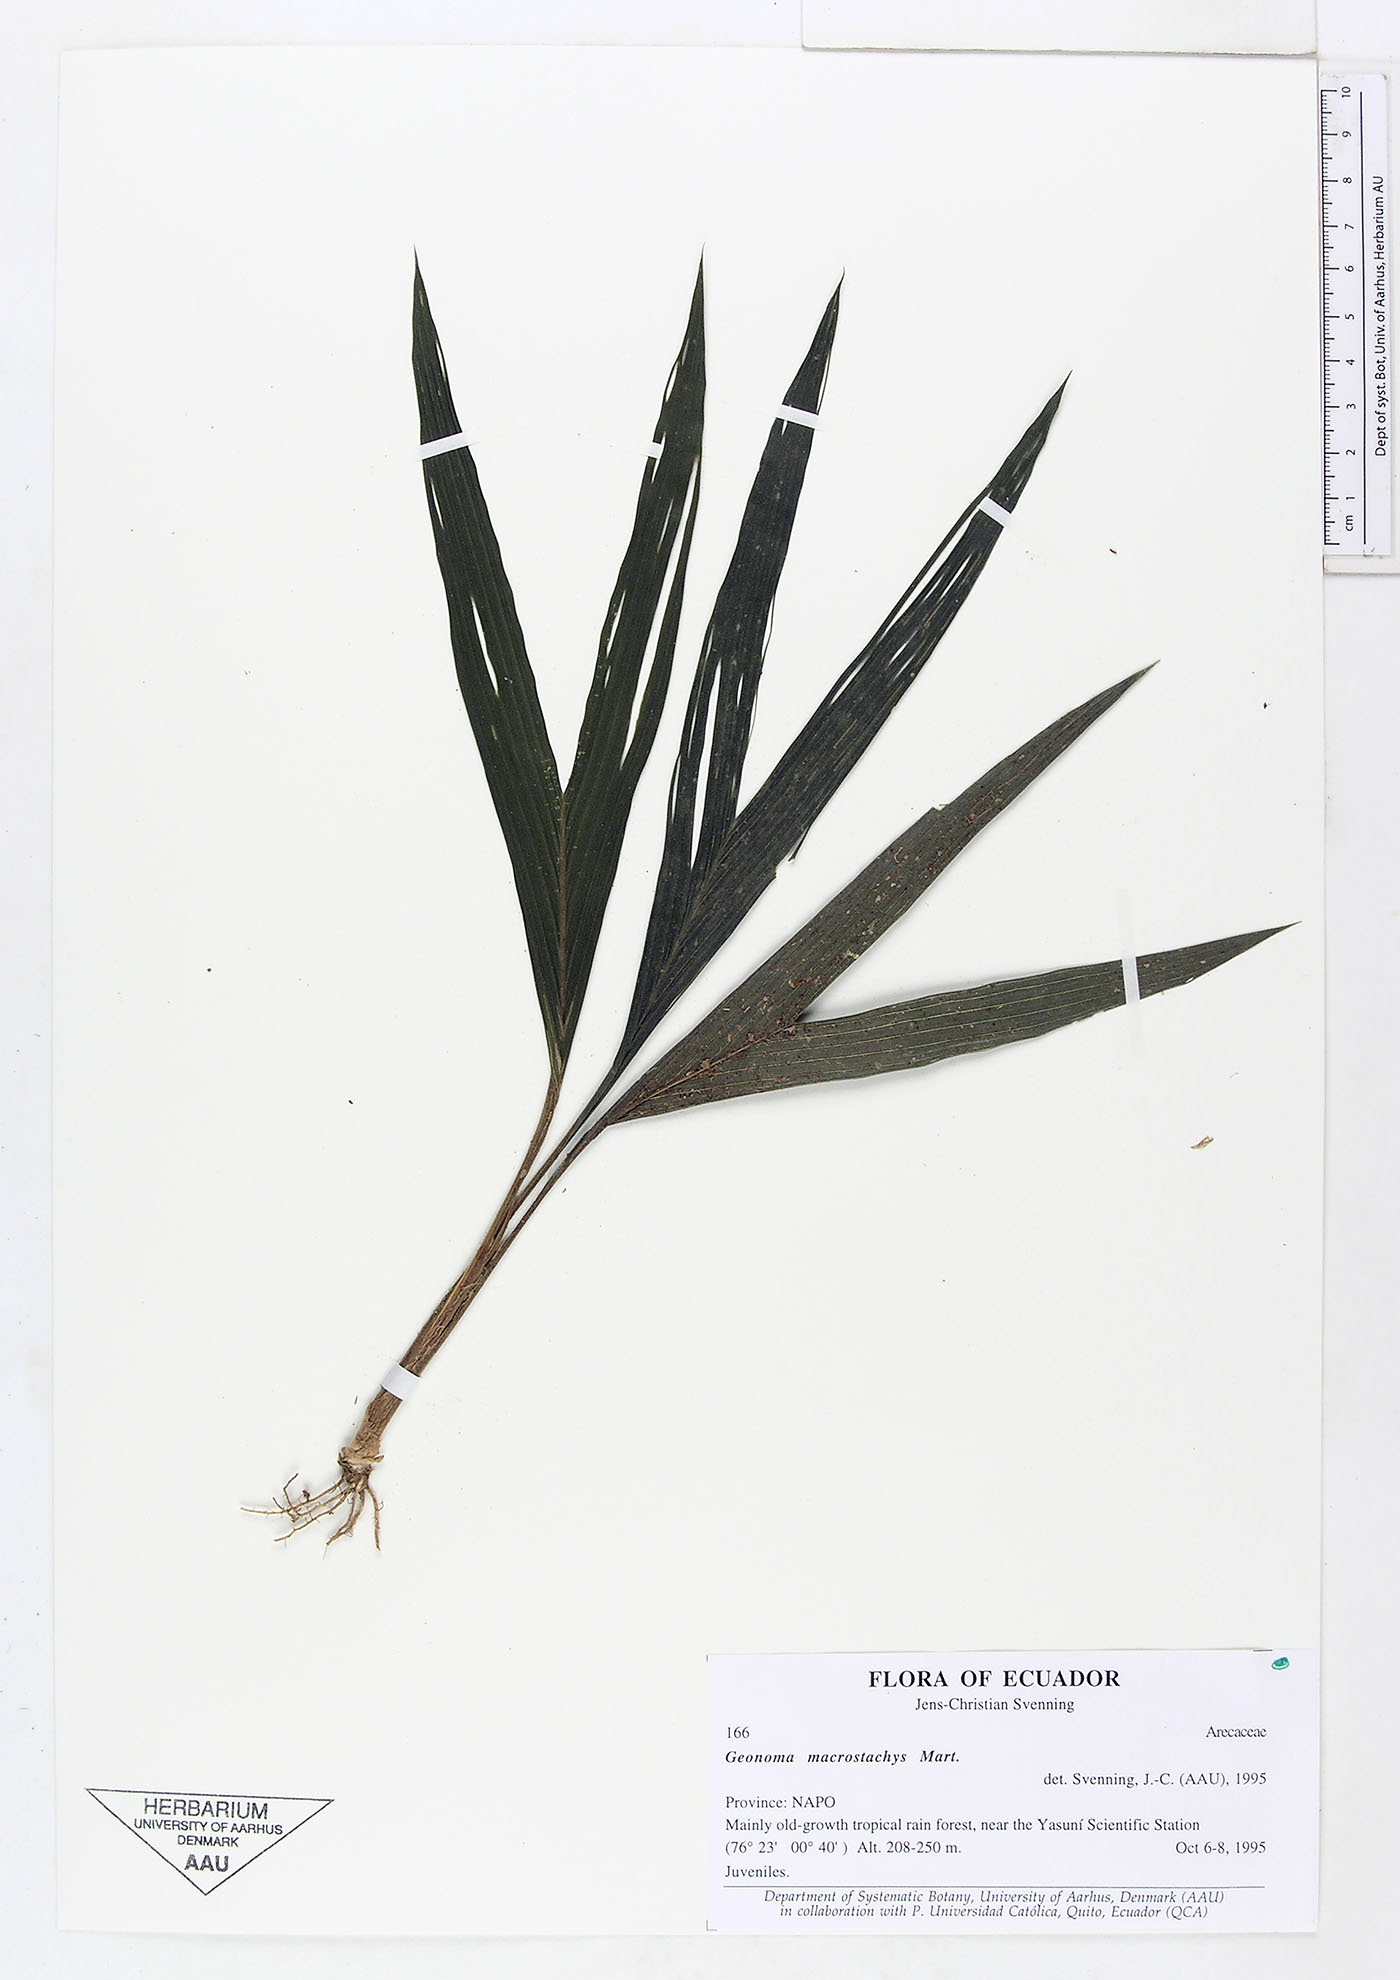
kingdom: Plantae
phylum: Tracheophyta
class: Liliopsida
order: Arecales
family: Arecaceae
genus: Geonoma
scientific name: Geonoma macrostachys
